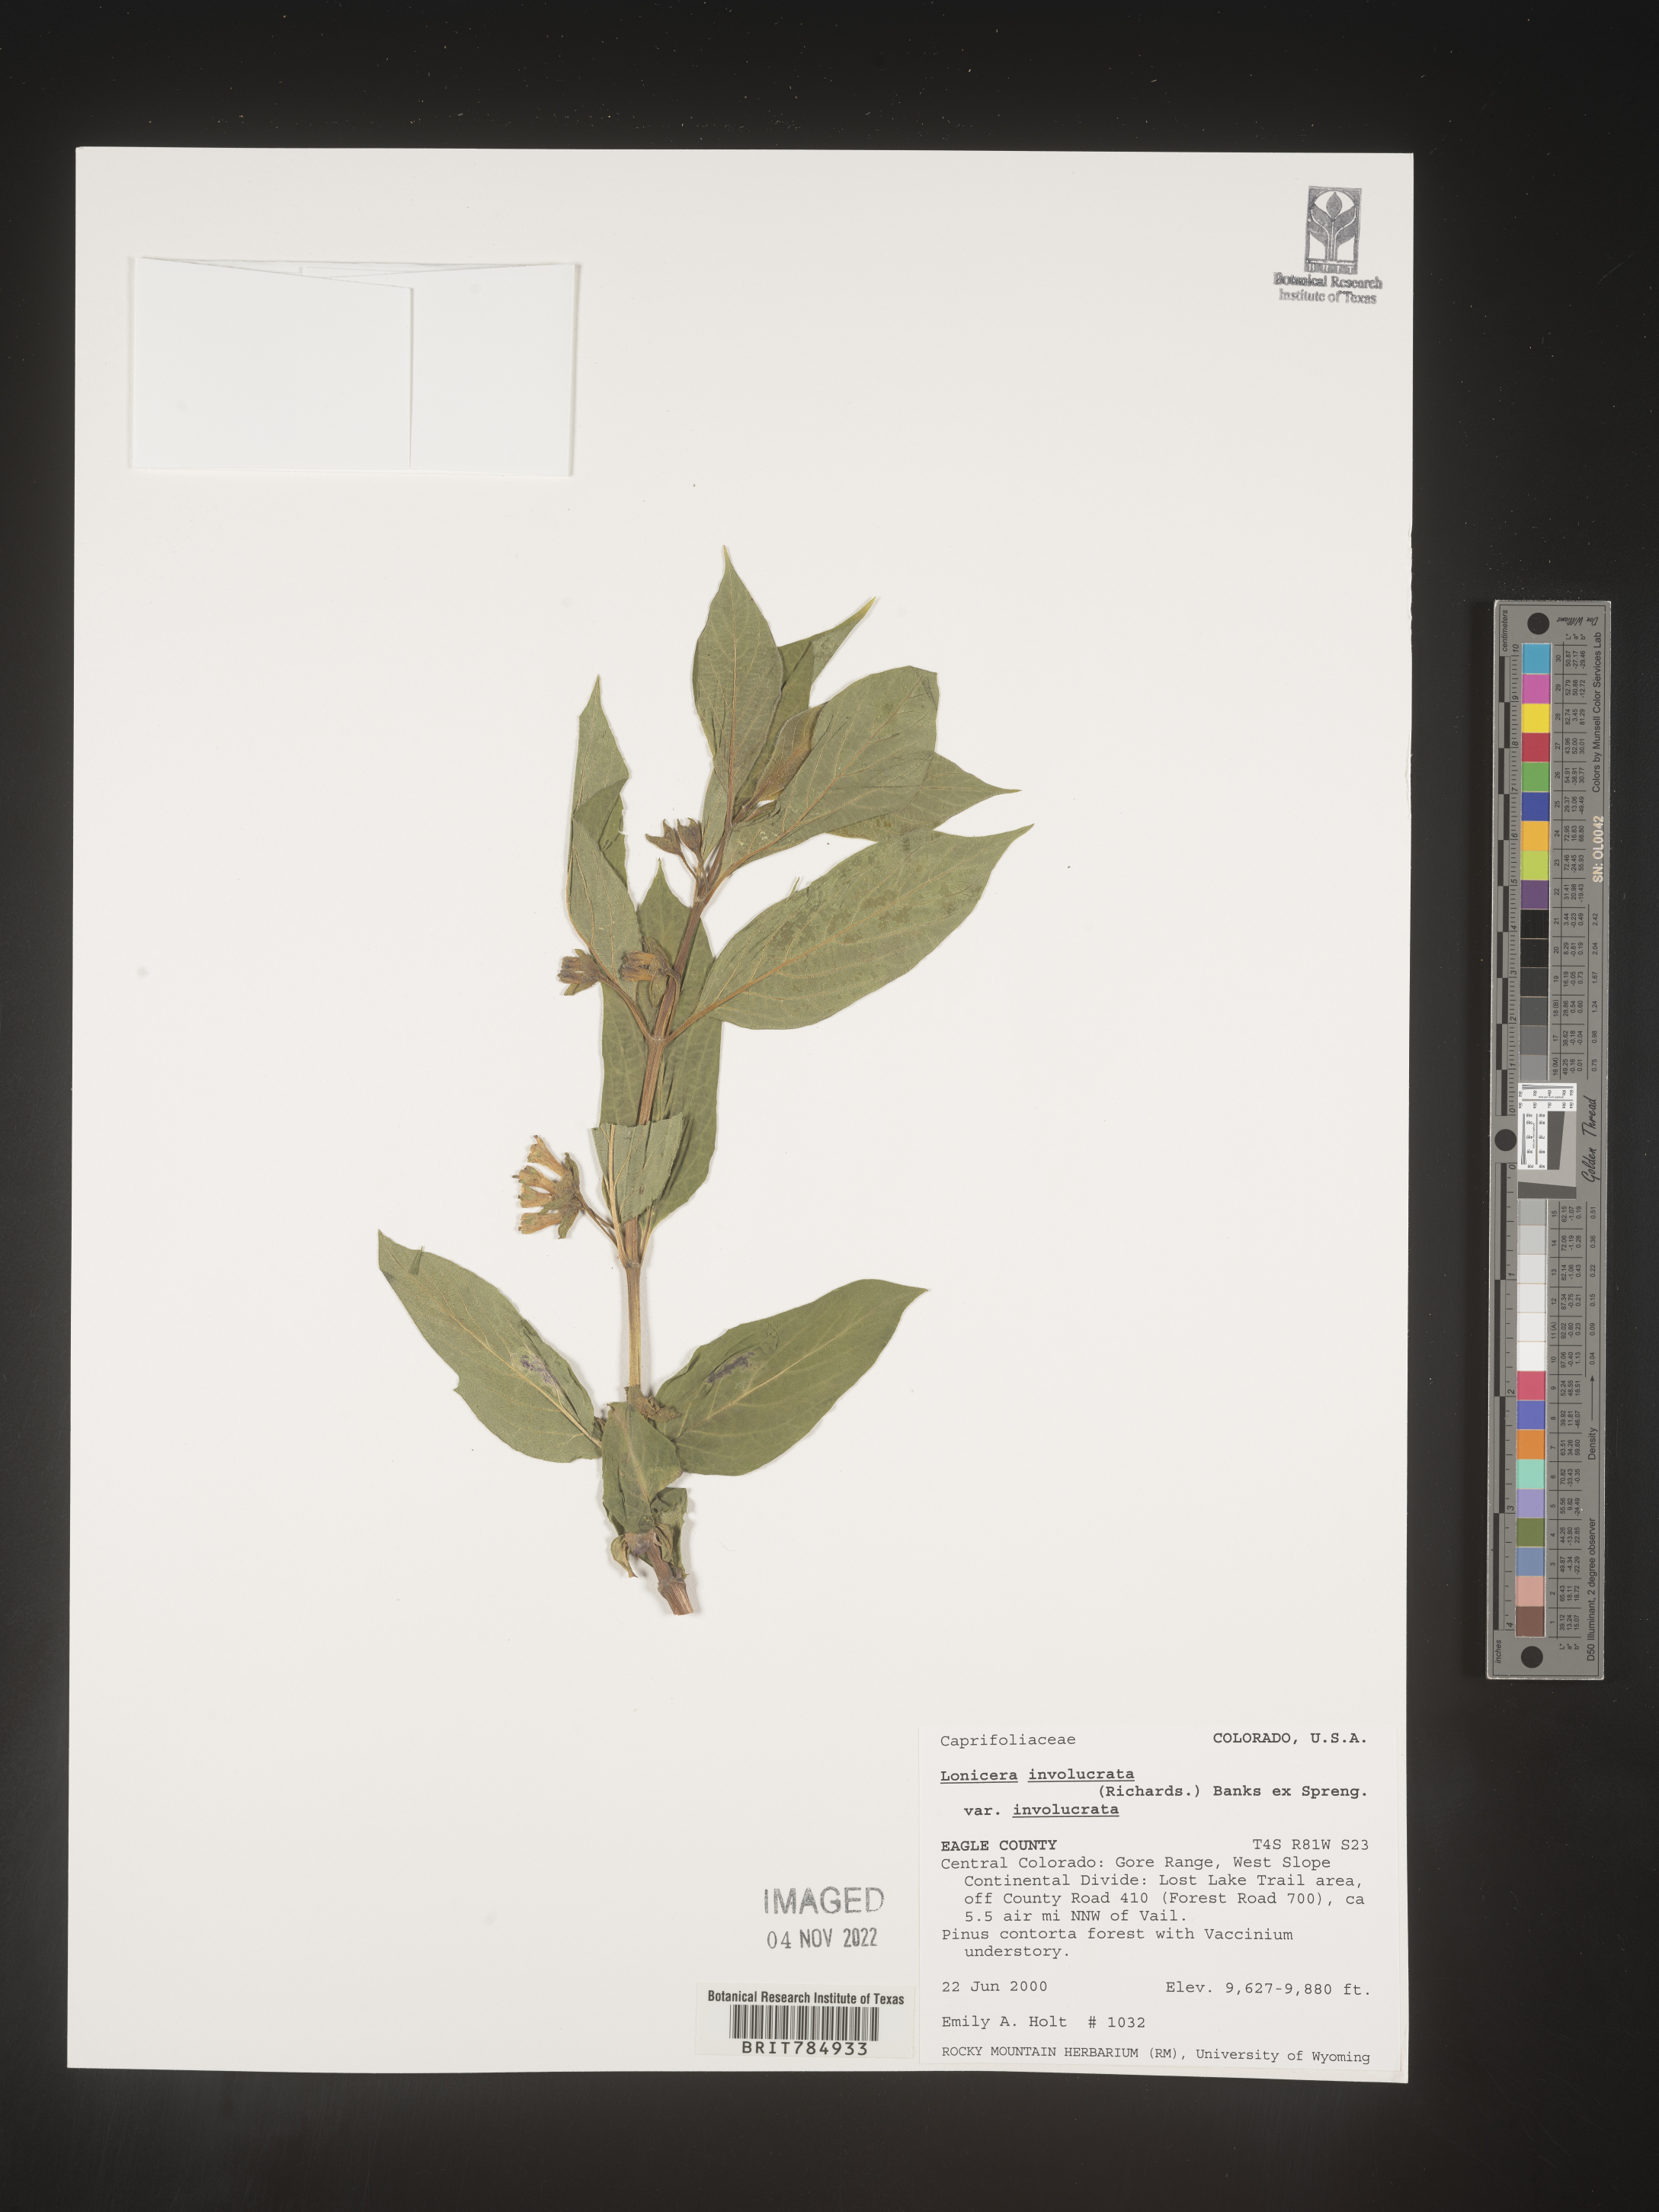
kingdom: Plantae
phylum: Tracheophyta
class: Magnoliopsida
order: Dipsacales
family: Caprifoliaceae
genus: Lonicera
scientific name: Lonicera involucrata
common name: Californian honeysuckle
